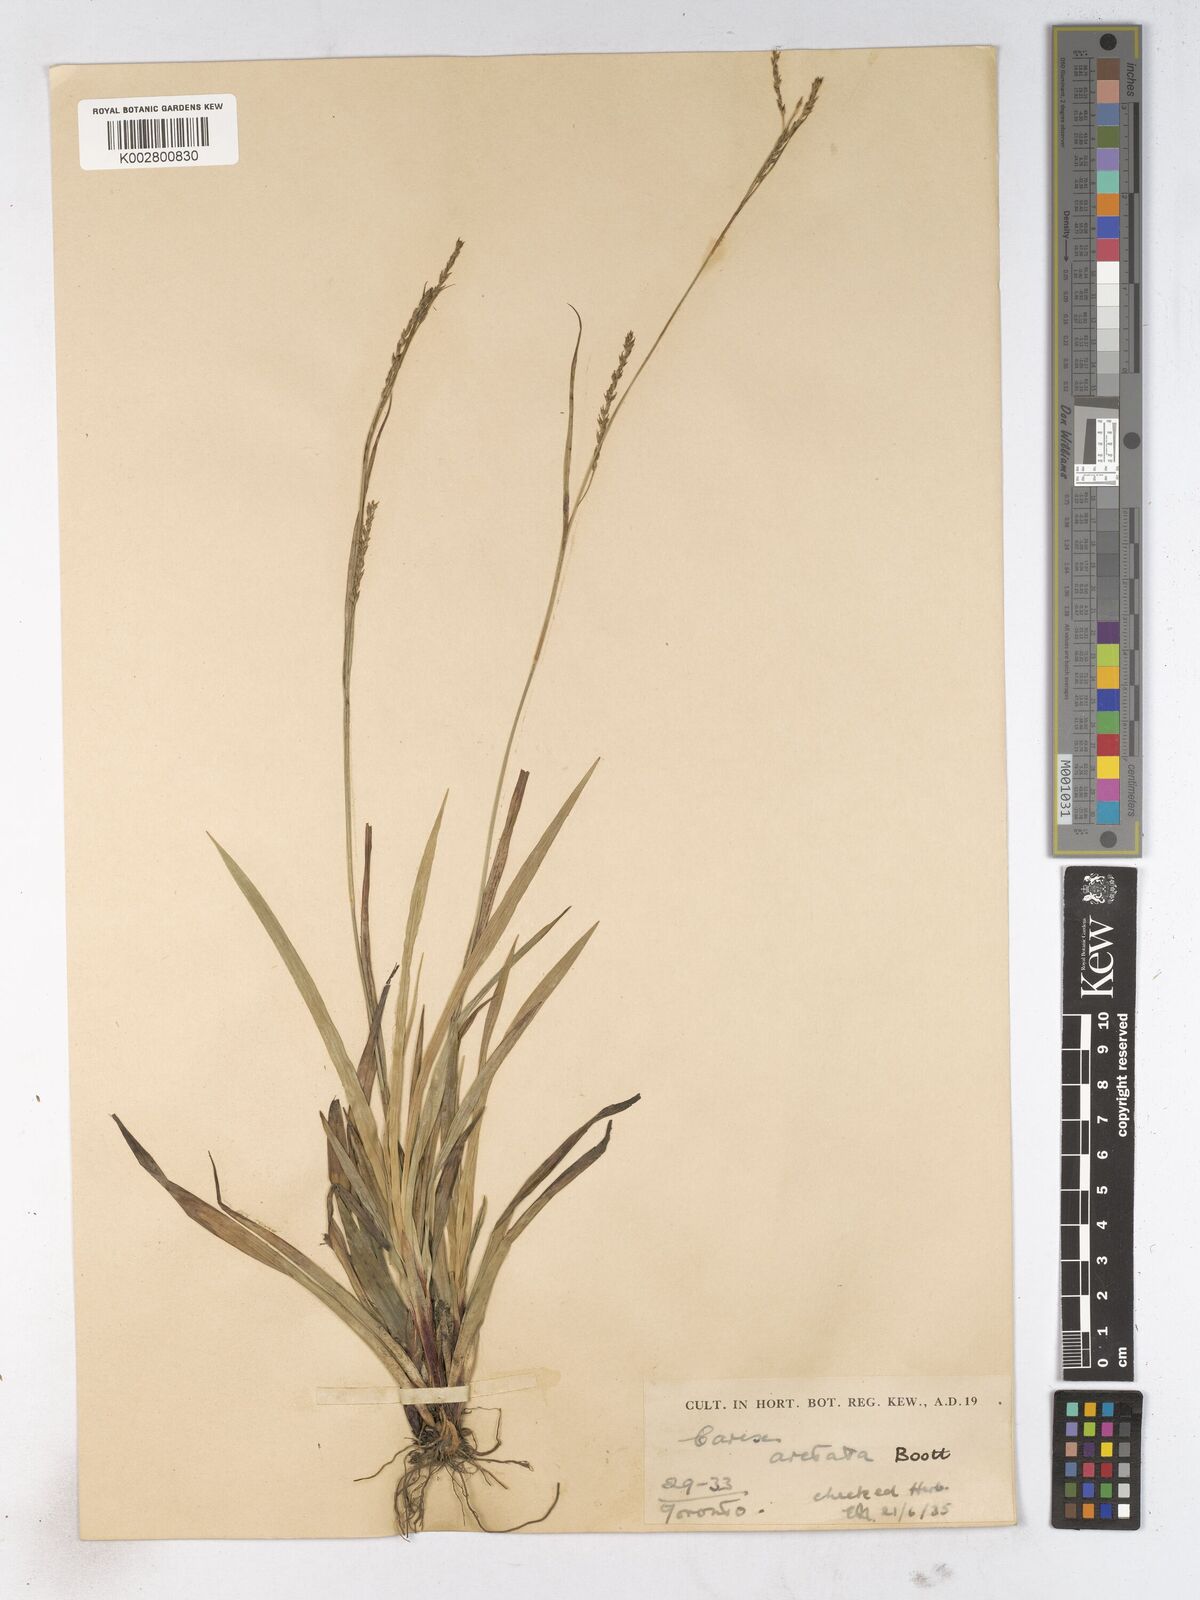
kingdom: Plantae
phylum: Tracheophyta
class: Liliopsida
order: Poales
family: Cyperaceae
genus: Carex
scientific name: Carex arctata
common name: Black sedge
